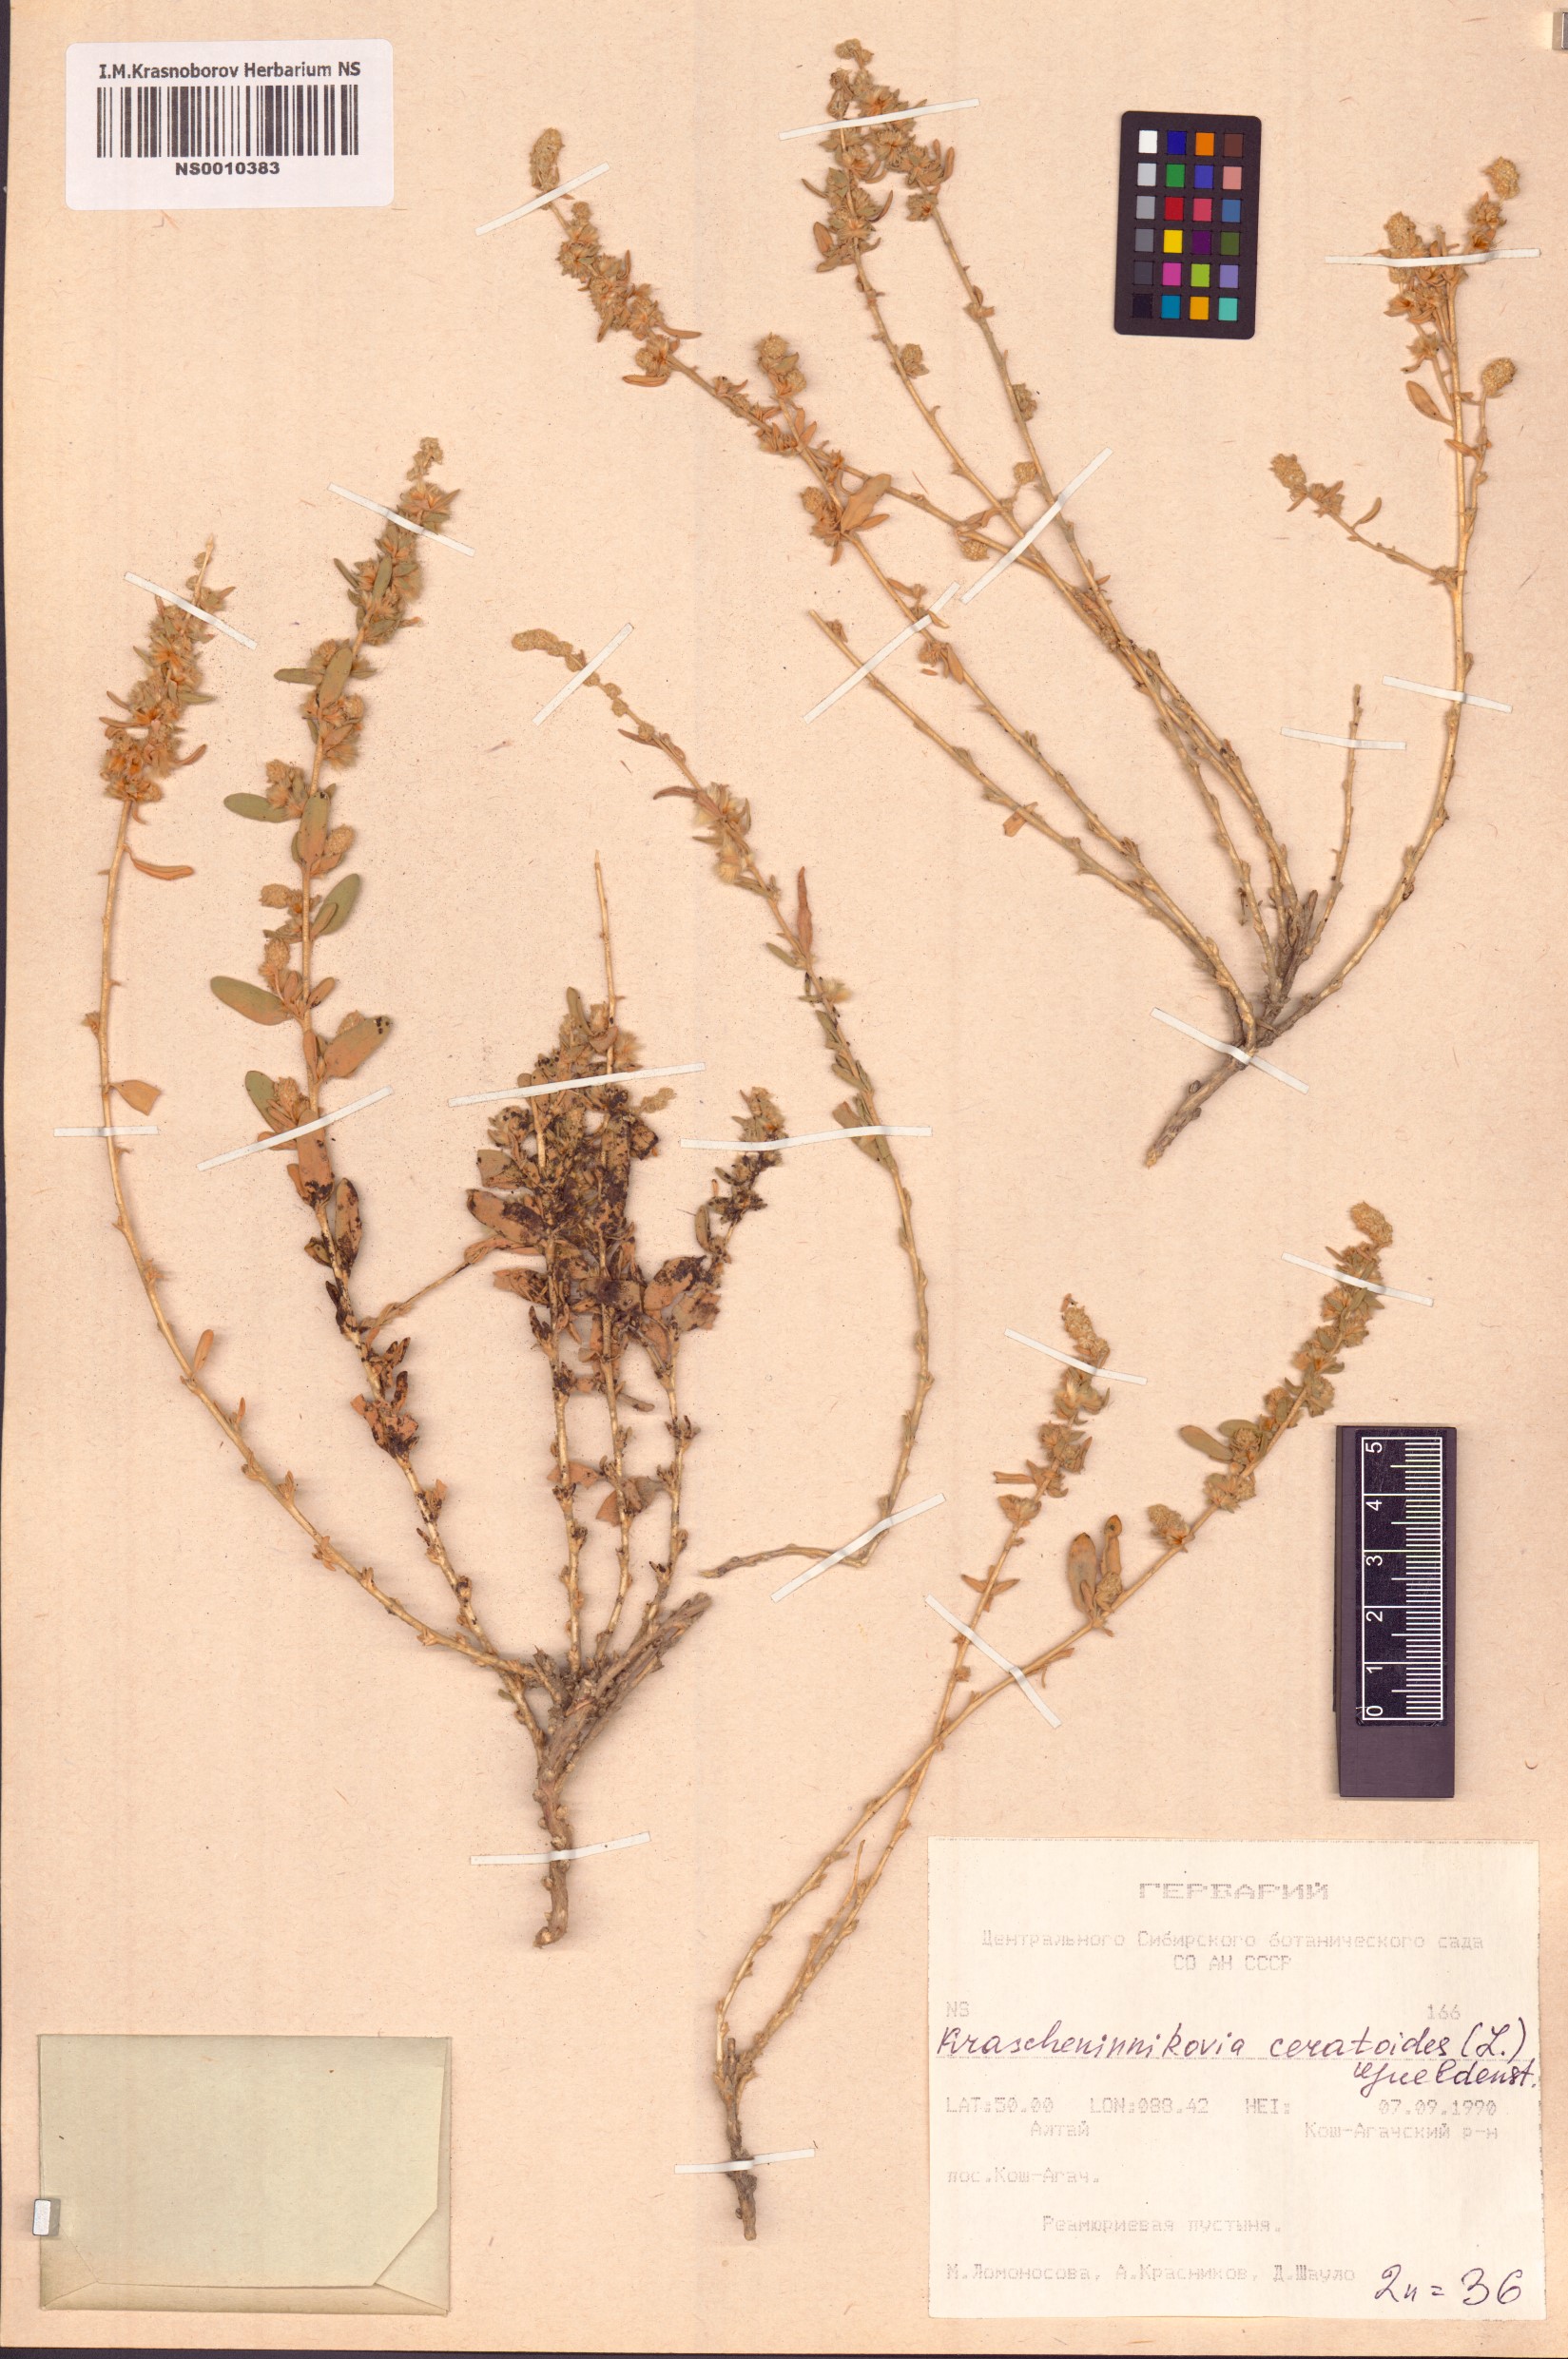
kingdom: Plantae
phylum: Tracheophyta
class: Magnoliopsida
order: Caryophyllales
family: Amaranthaceae
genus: Krascheninnikovia
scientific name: Krascheninnikovia ceratoides
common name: Pamirian winterfat
